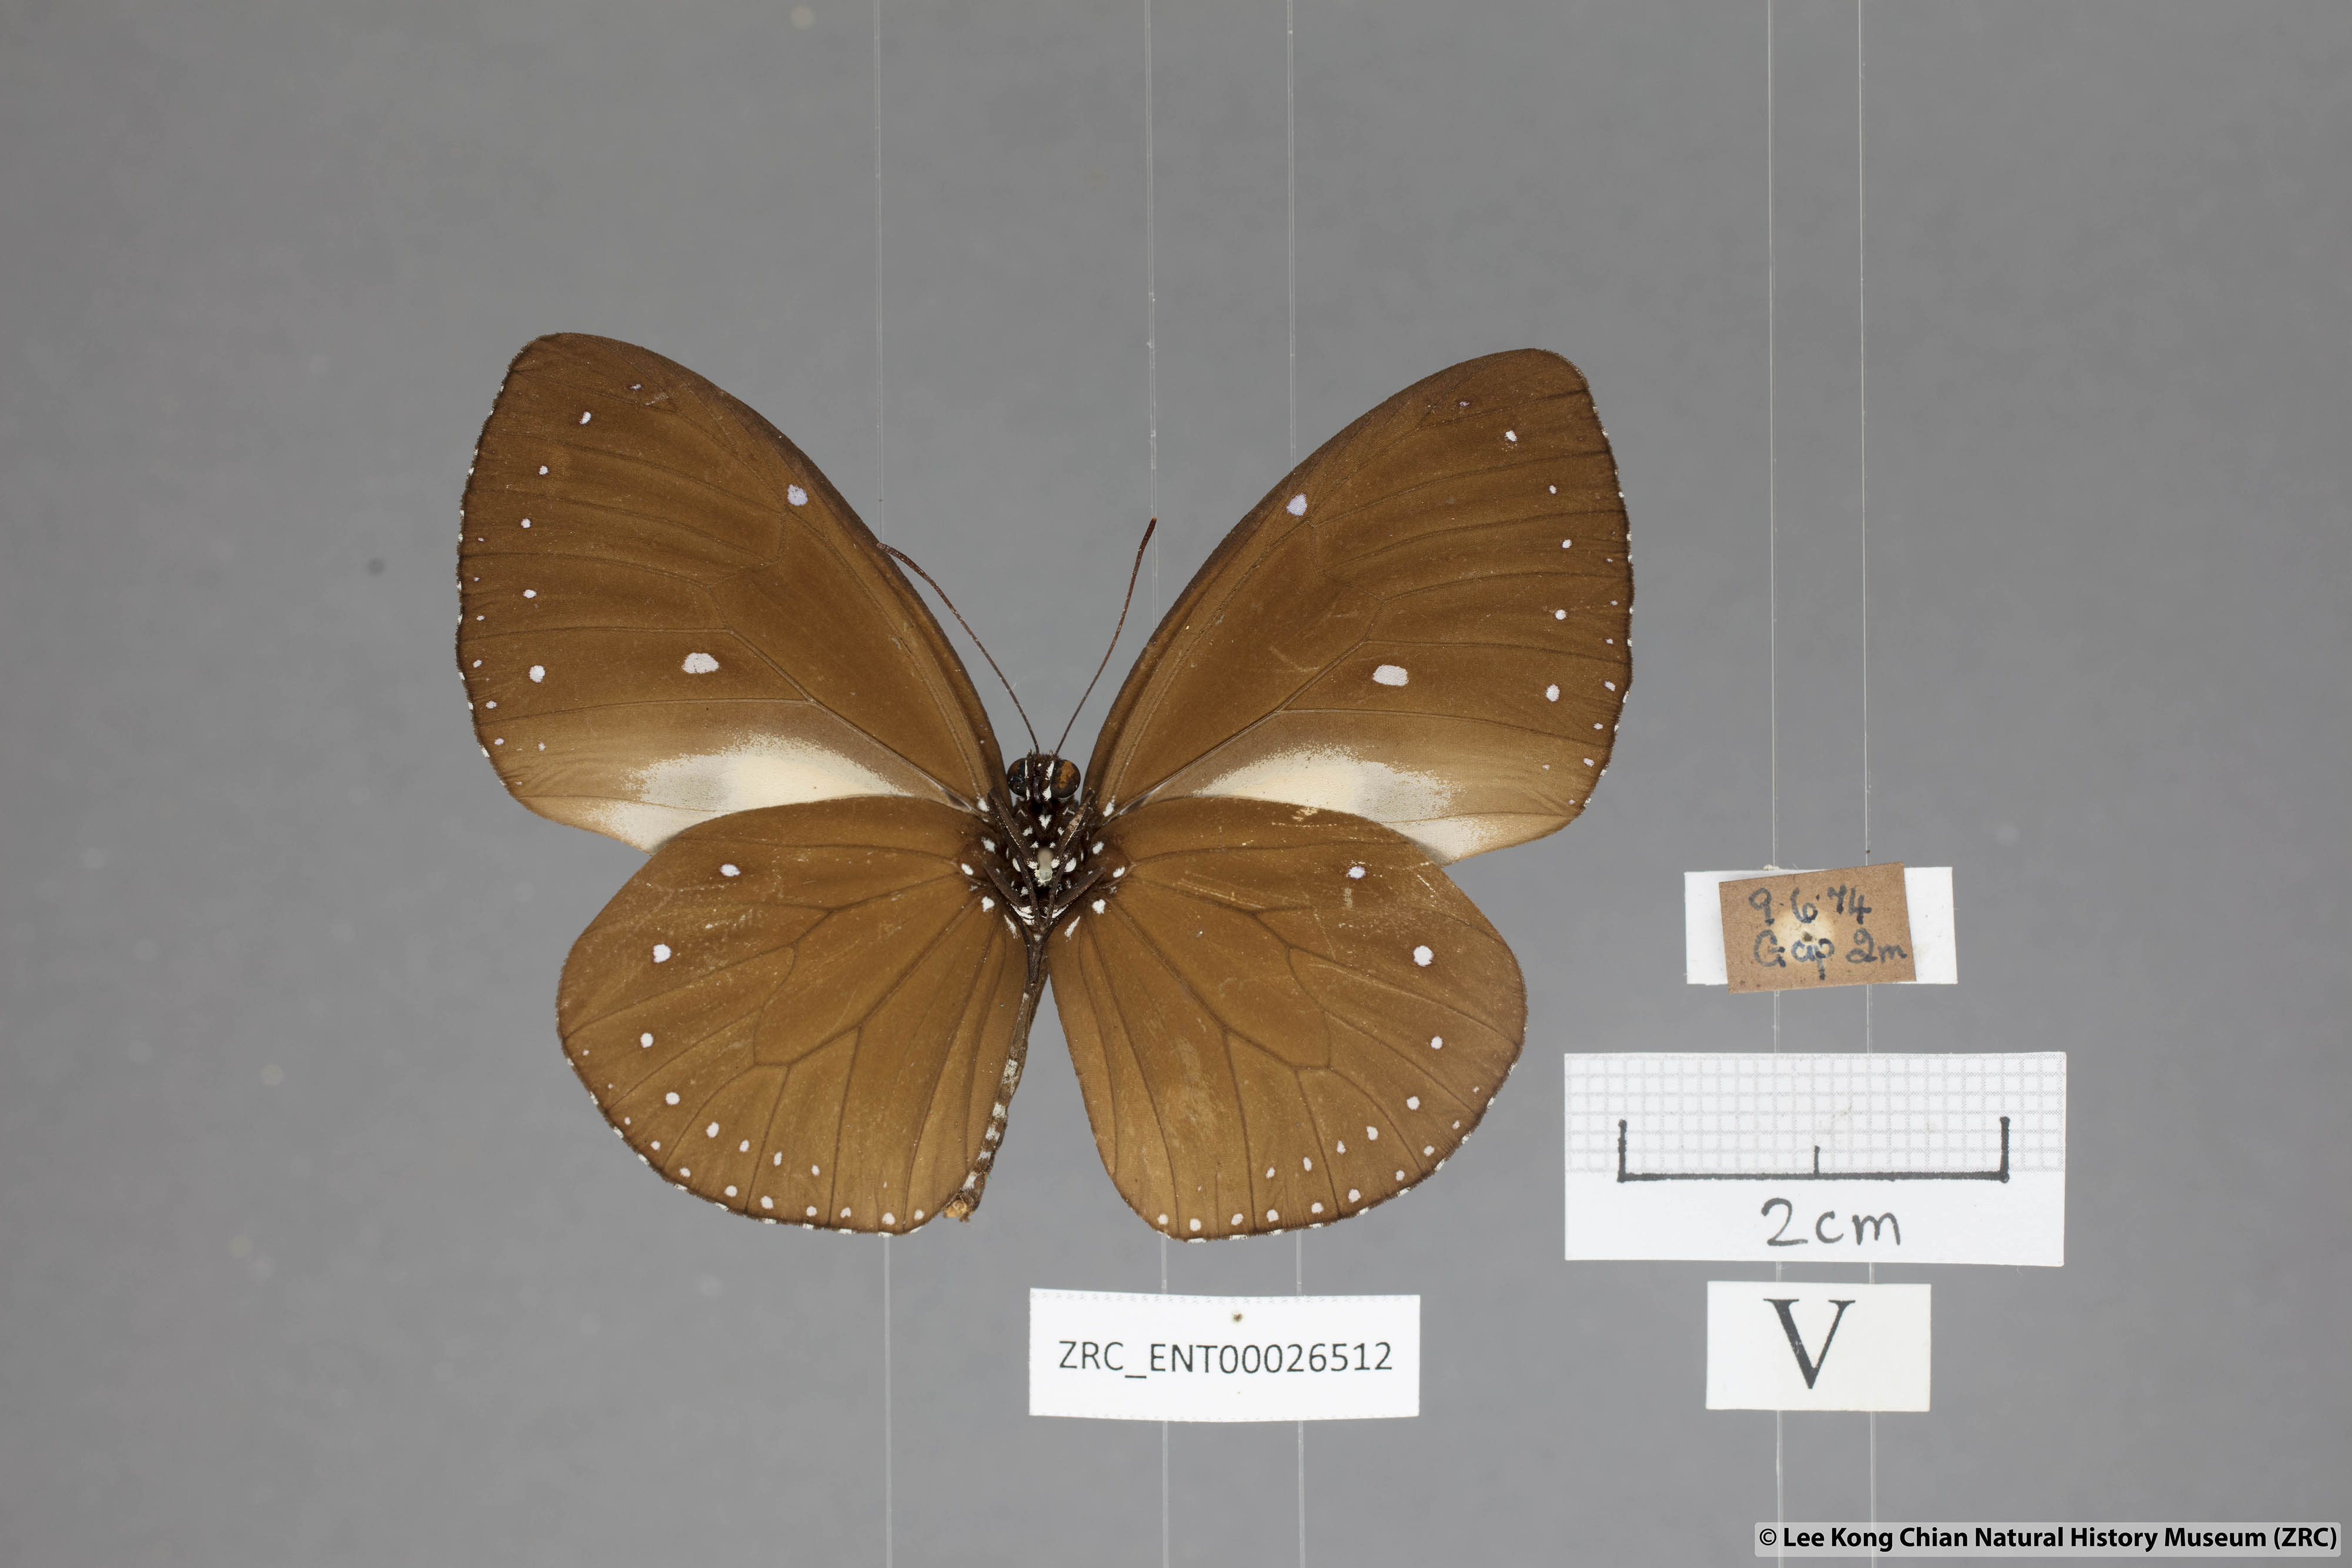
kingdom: Animalia
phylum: Arthropoda
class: Insecta
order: Lepidoptera
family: Nymphalidae
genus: Euploea
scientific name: Euploea tulliolus
